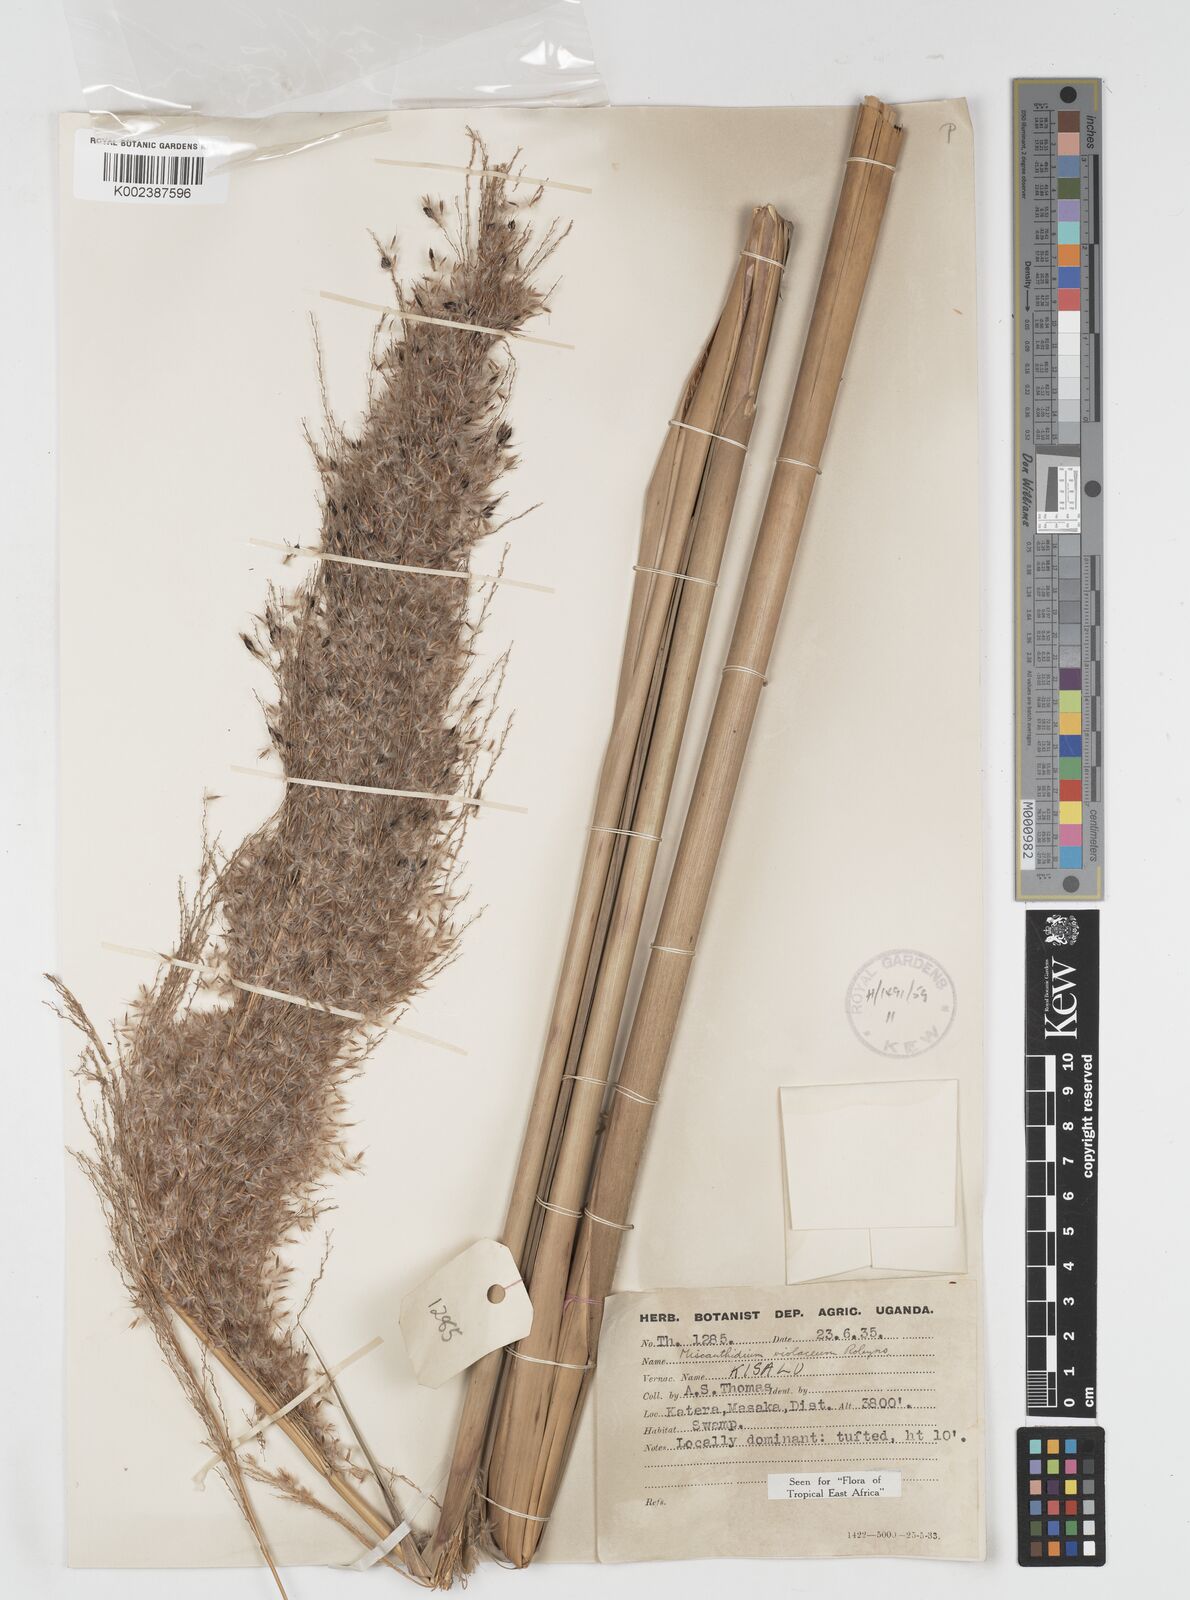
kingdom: Plantae
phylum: Tracheophyta
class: Liliopsida
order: Poales
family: Poaceae
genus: Miscanthidium
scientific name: Miscanthidium violaceum
